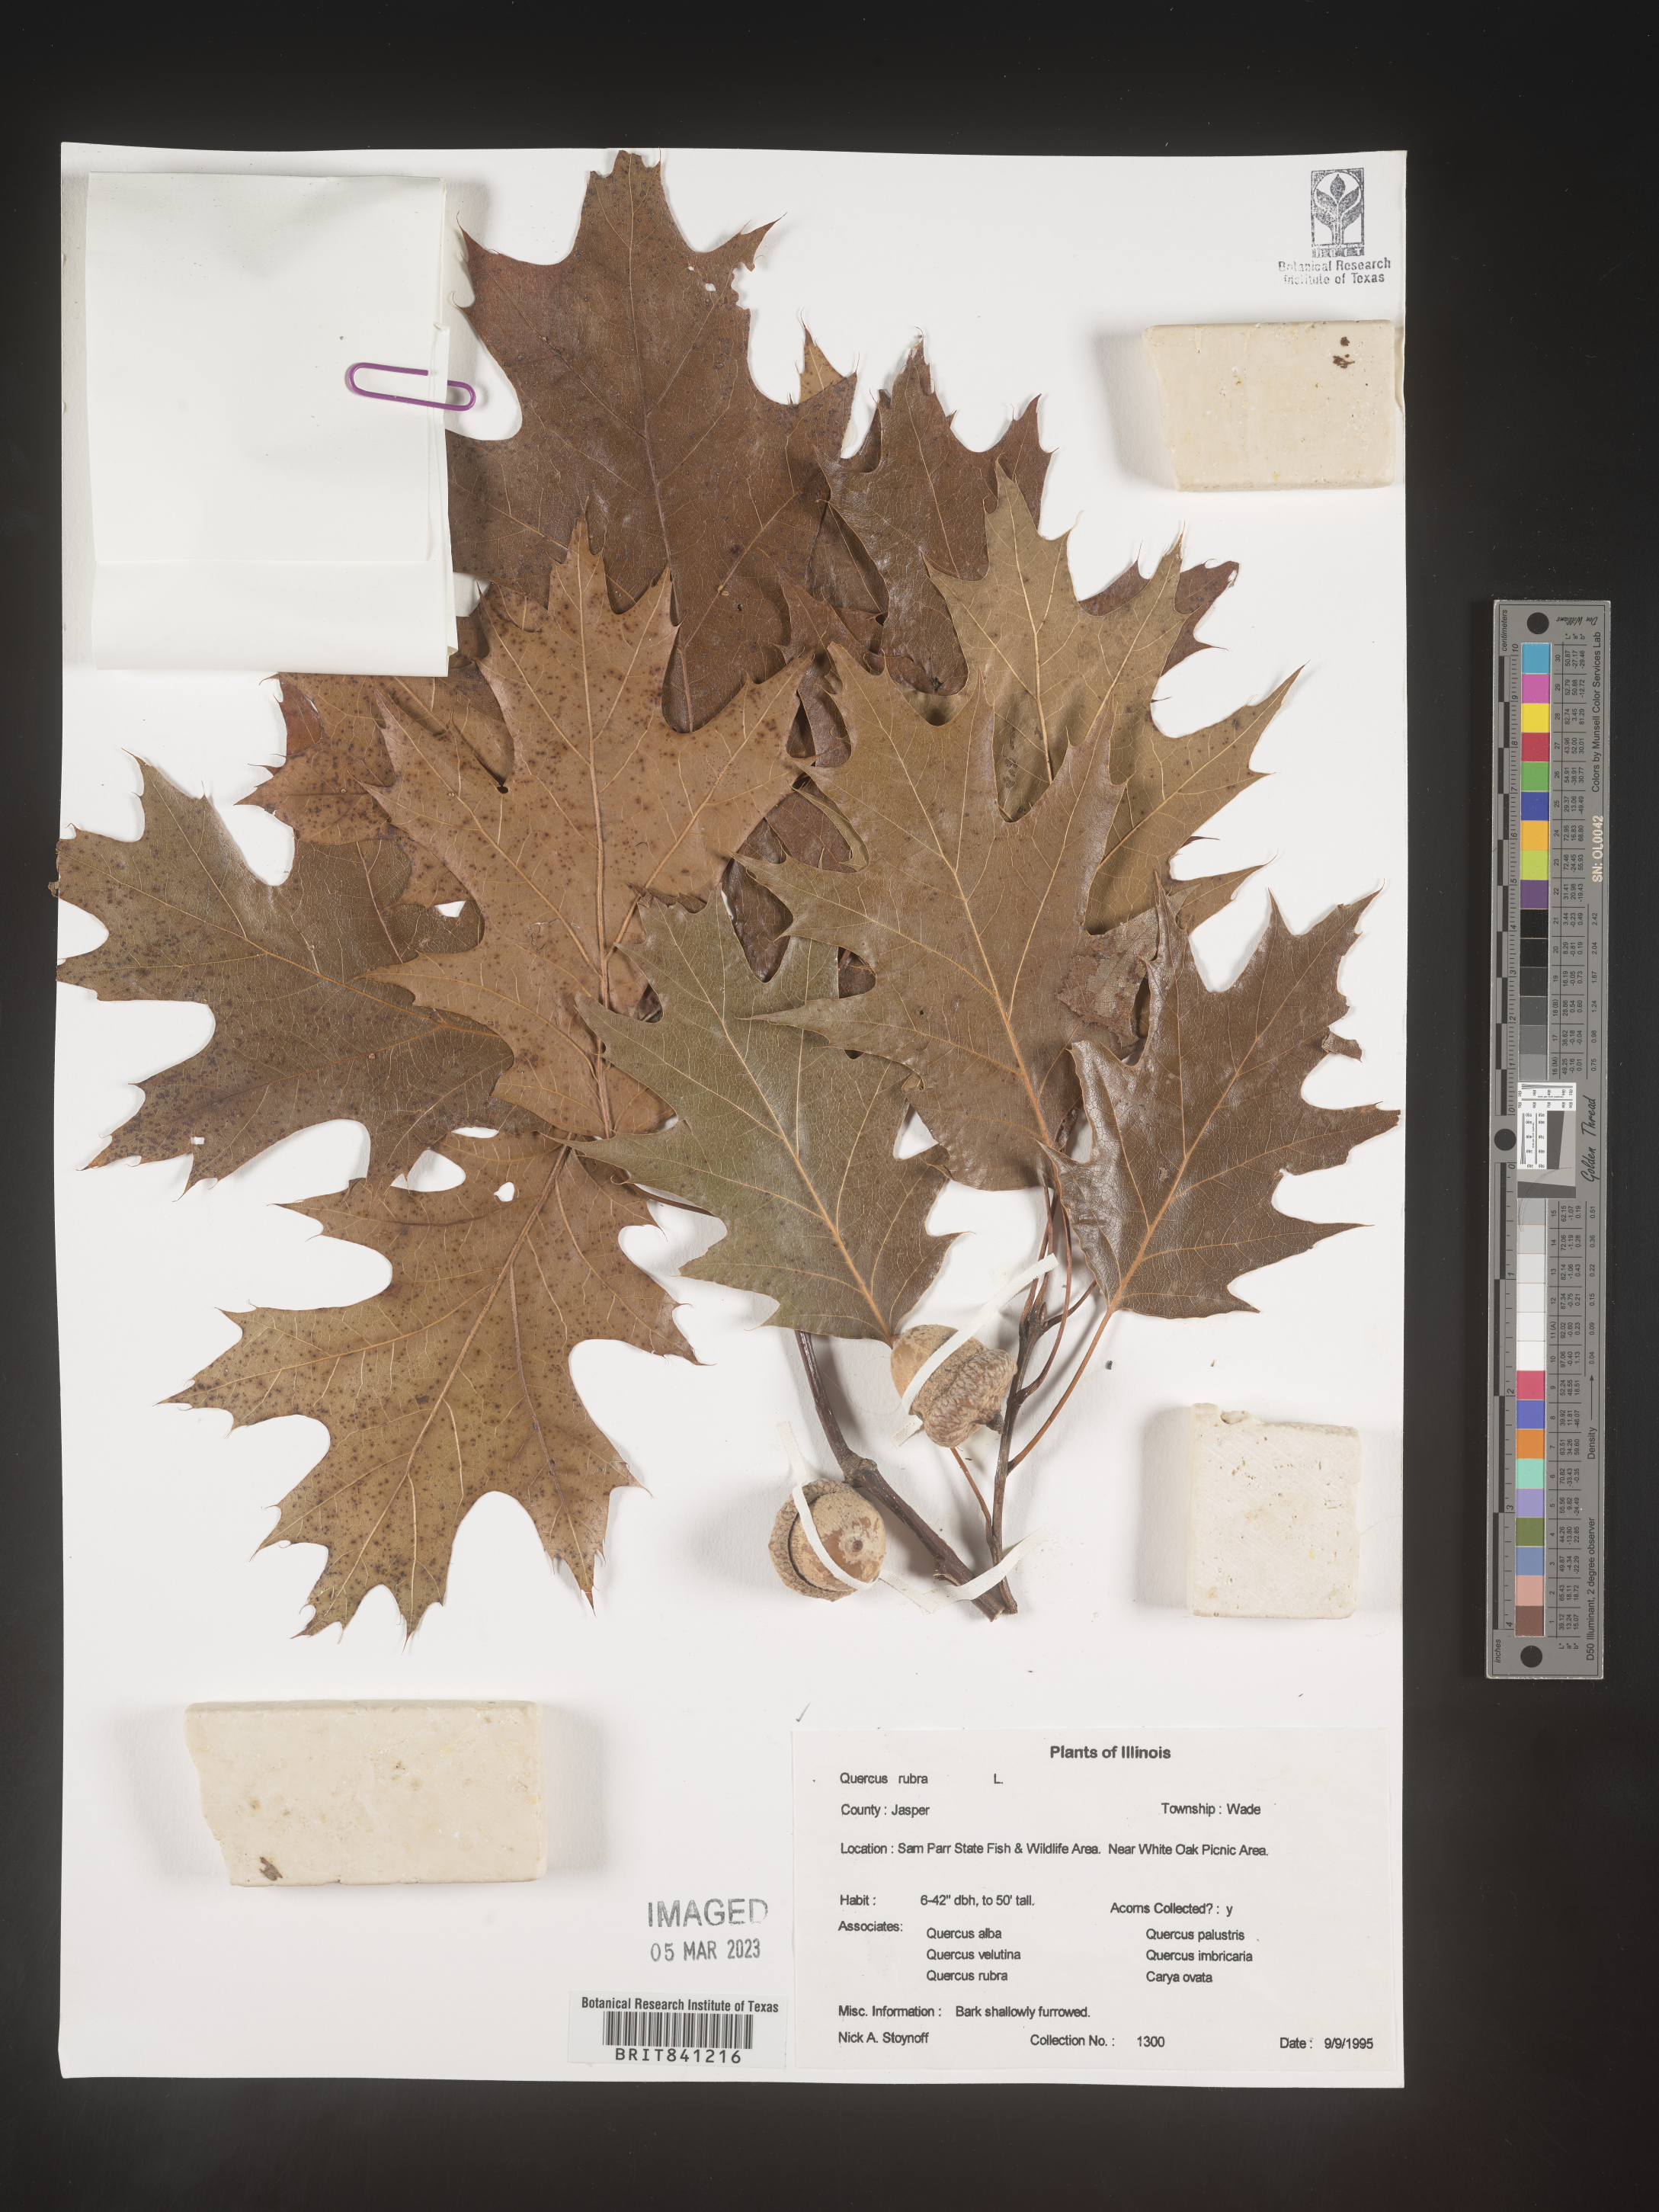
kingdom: Plantae
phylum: Tracheophyta
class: Magnoliopsida
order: Fagales
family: Fagaceae
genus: Quercus
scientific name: Quercus rubra
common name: Red oak
